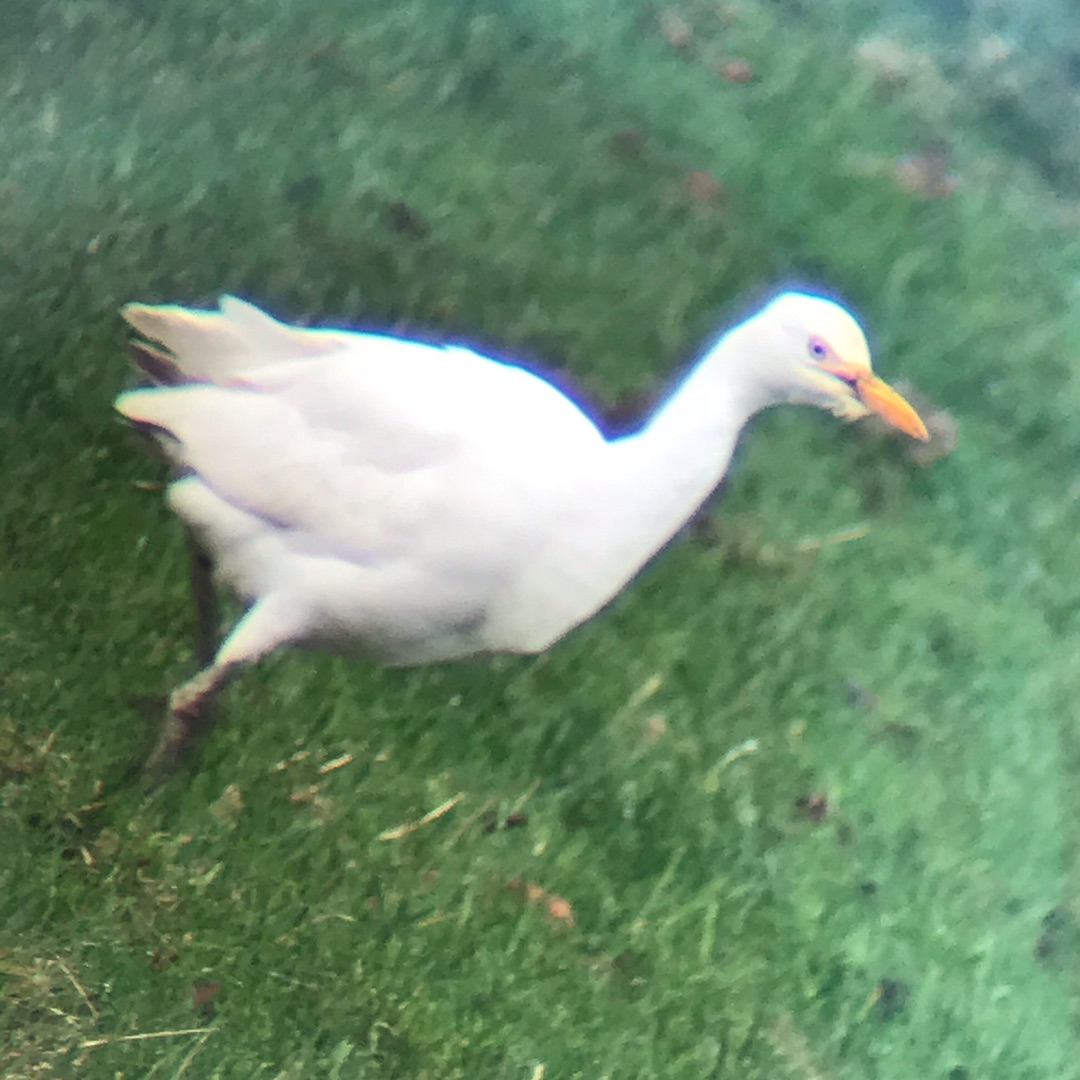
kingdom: Animalia
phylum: Chordata
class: Aves
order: Pelecaniformes
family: Ardeidae
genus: Bubulcus
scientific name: Bubulcus ibis
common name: Kohejre
